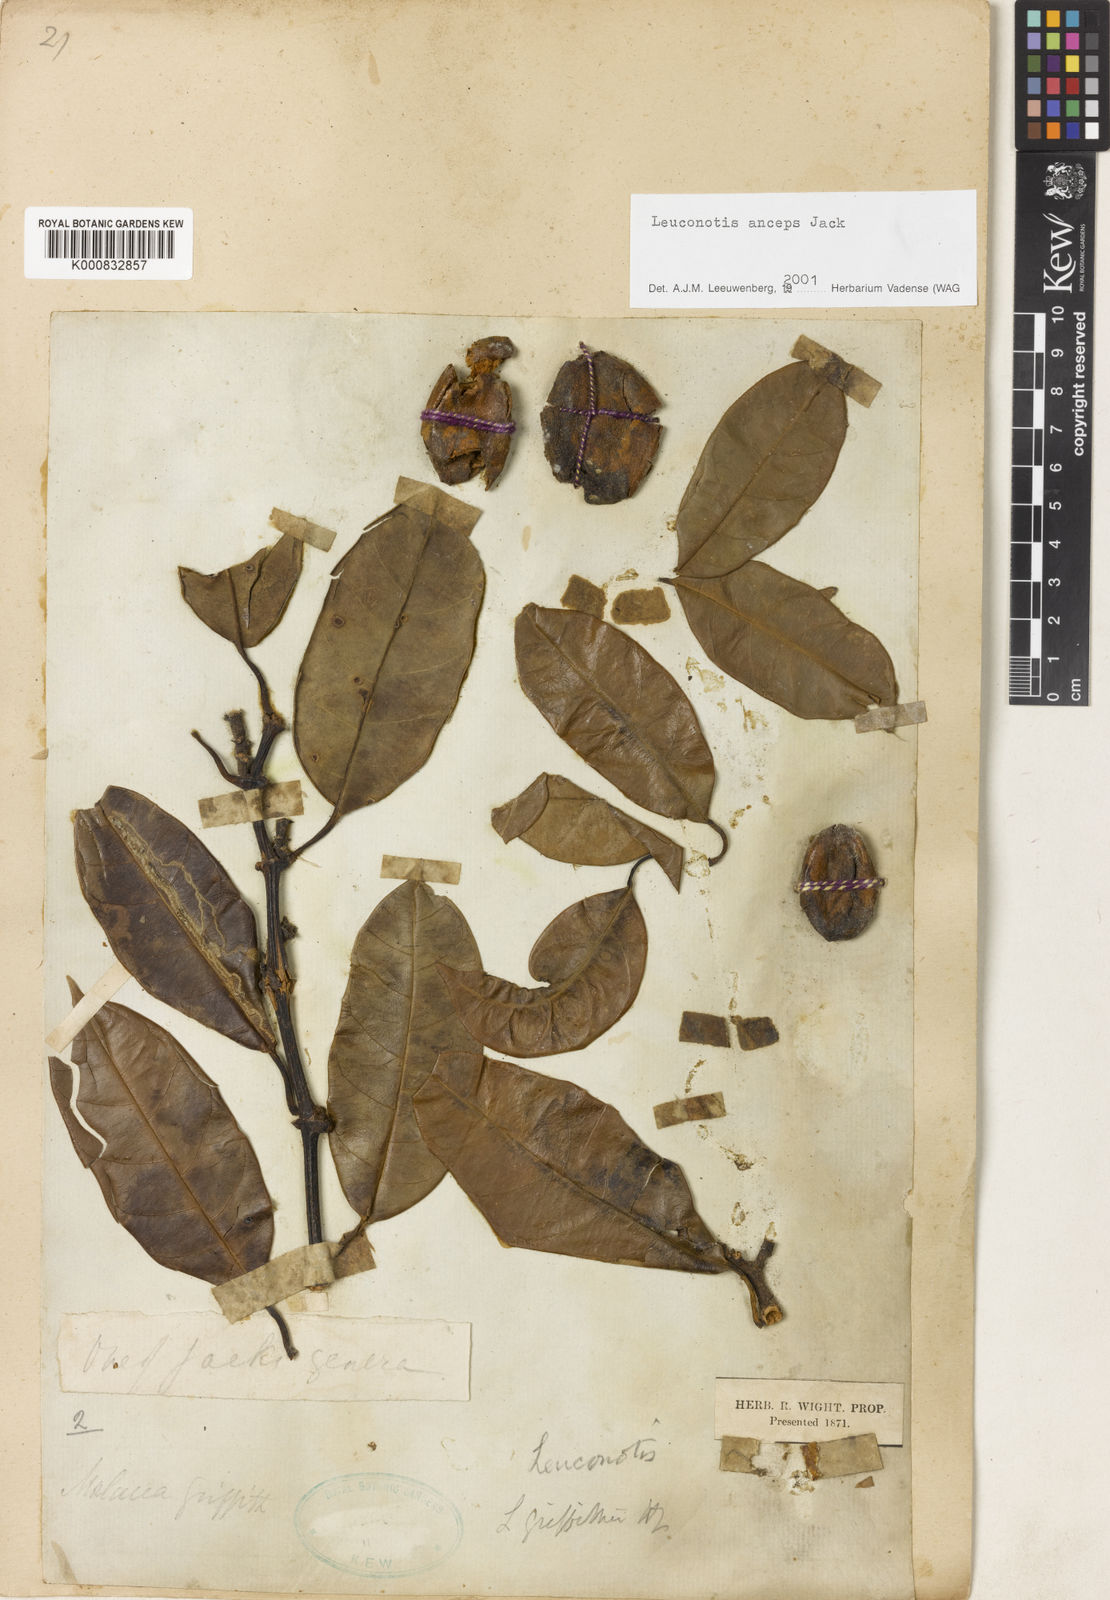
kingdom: Plantae
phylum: Tracheophyta
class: Magnoliopsida
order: Gentianales
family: Apocynaceae
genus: Leuconotis
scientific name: Leuconotis griffithii
